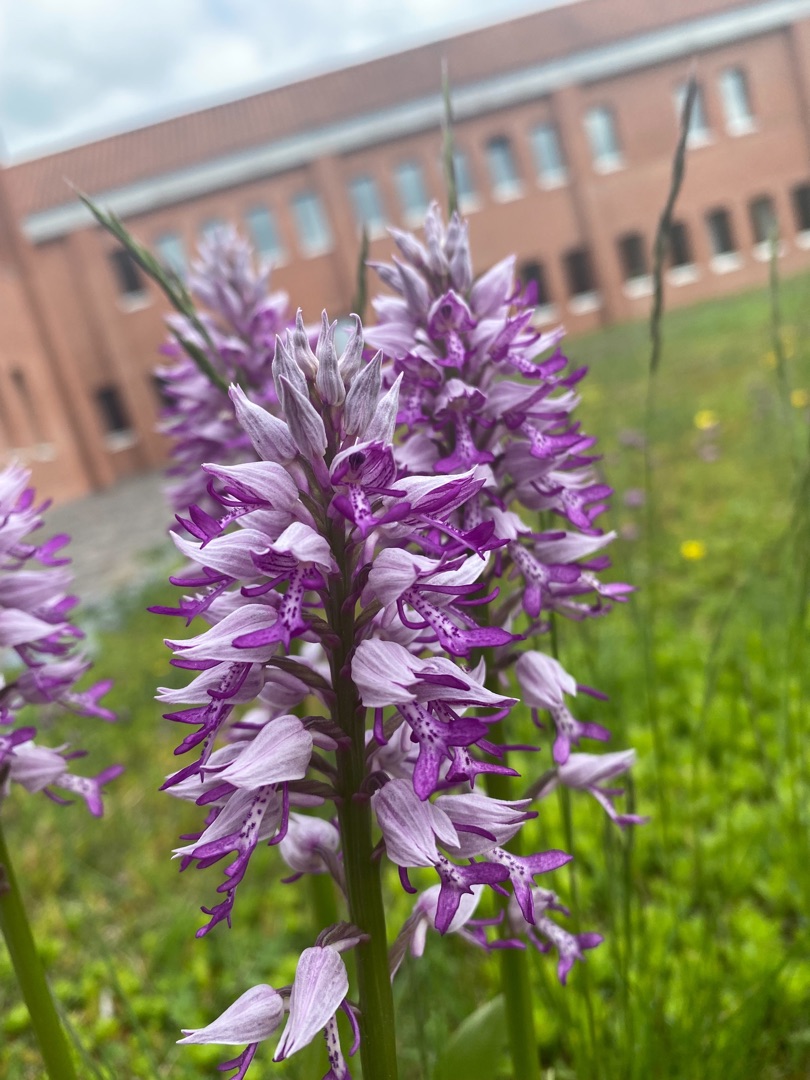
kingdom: Plantae
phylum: Tracheophyta
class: Liliopsida
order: Asparagales
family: Orchidaceae
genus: Orchis
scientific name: Orchis militaris
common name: Ridder-gøgeurt
